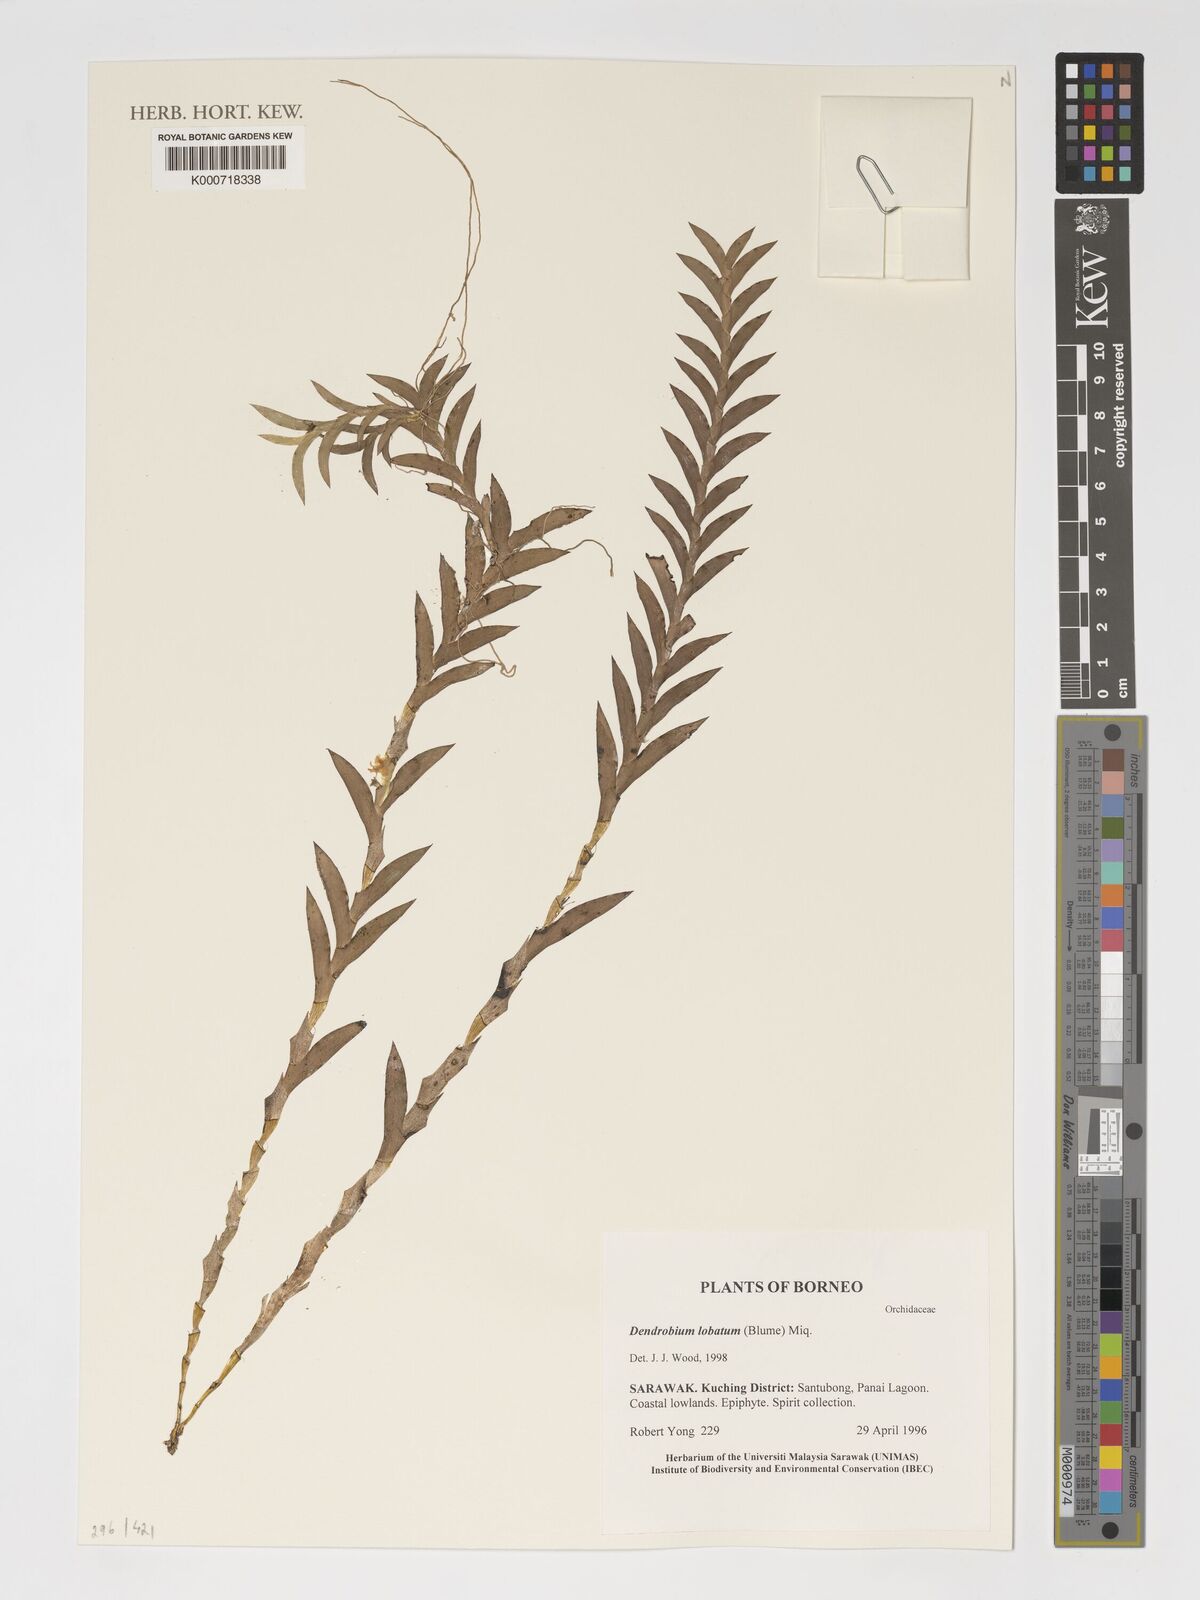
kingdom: Plantae
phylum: Tracheophyta
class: Liliopsida
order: Asparagales
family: Orchidaceae
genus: Dendrobium
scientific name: Dendrobium lobatum
